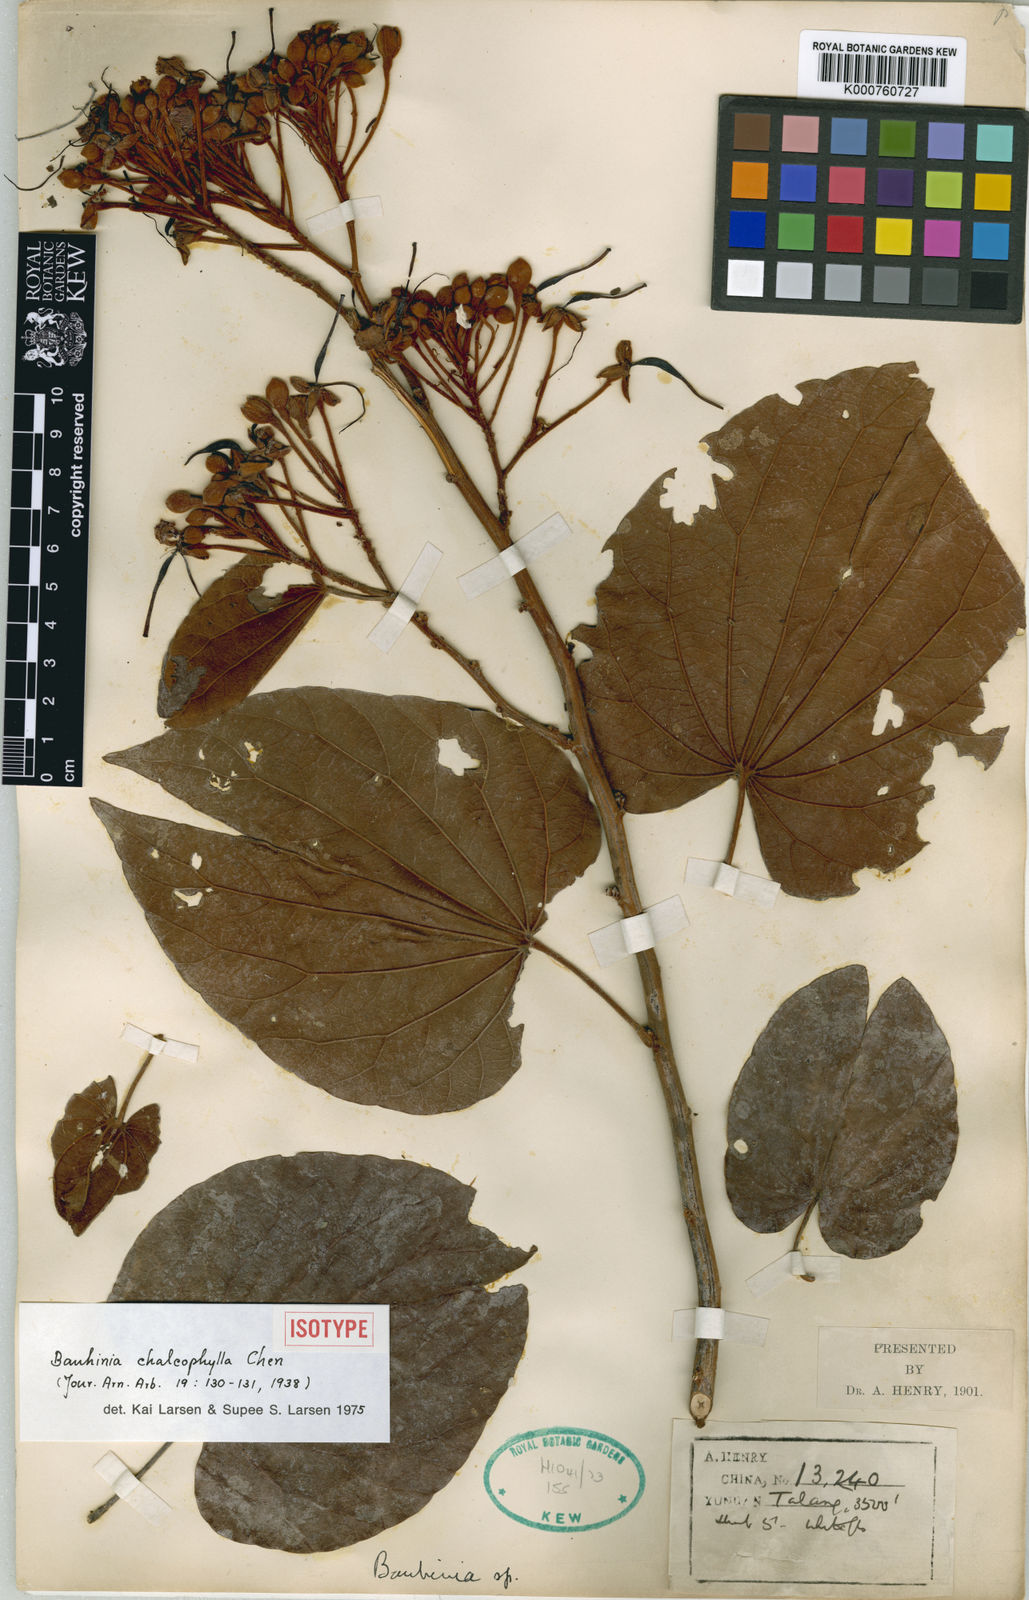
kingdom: Plantae
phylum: Tracheophyta
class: Magnoliopsida
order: Fabales
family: Fabaceae
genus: Phanera
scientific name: Phanera chalcophylla
